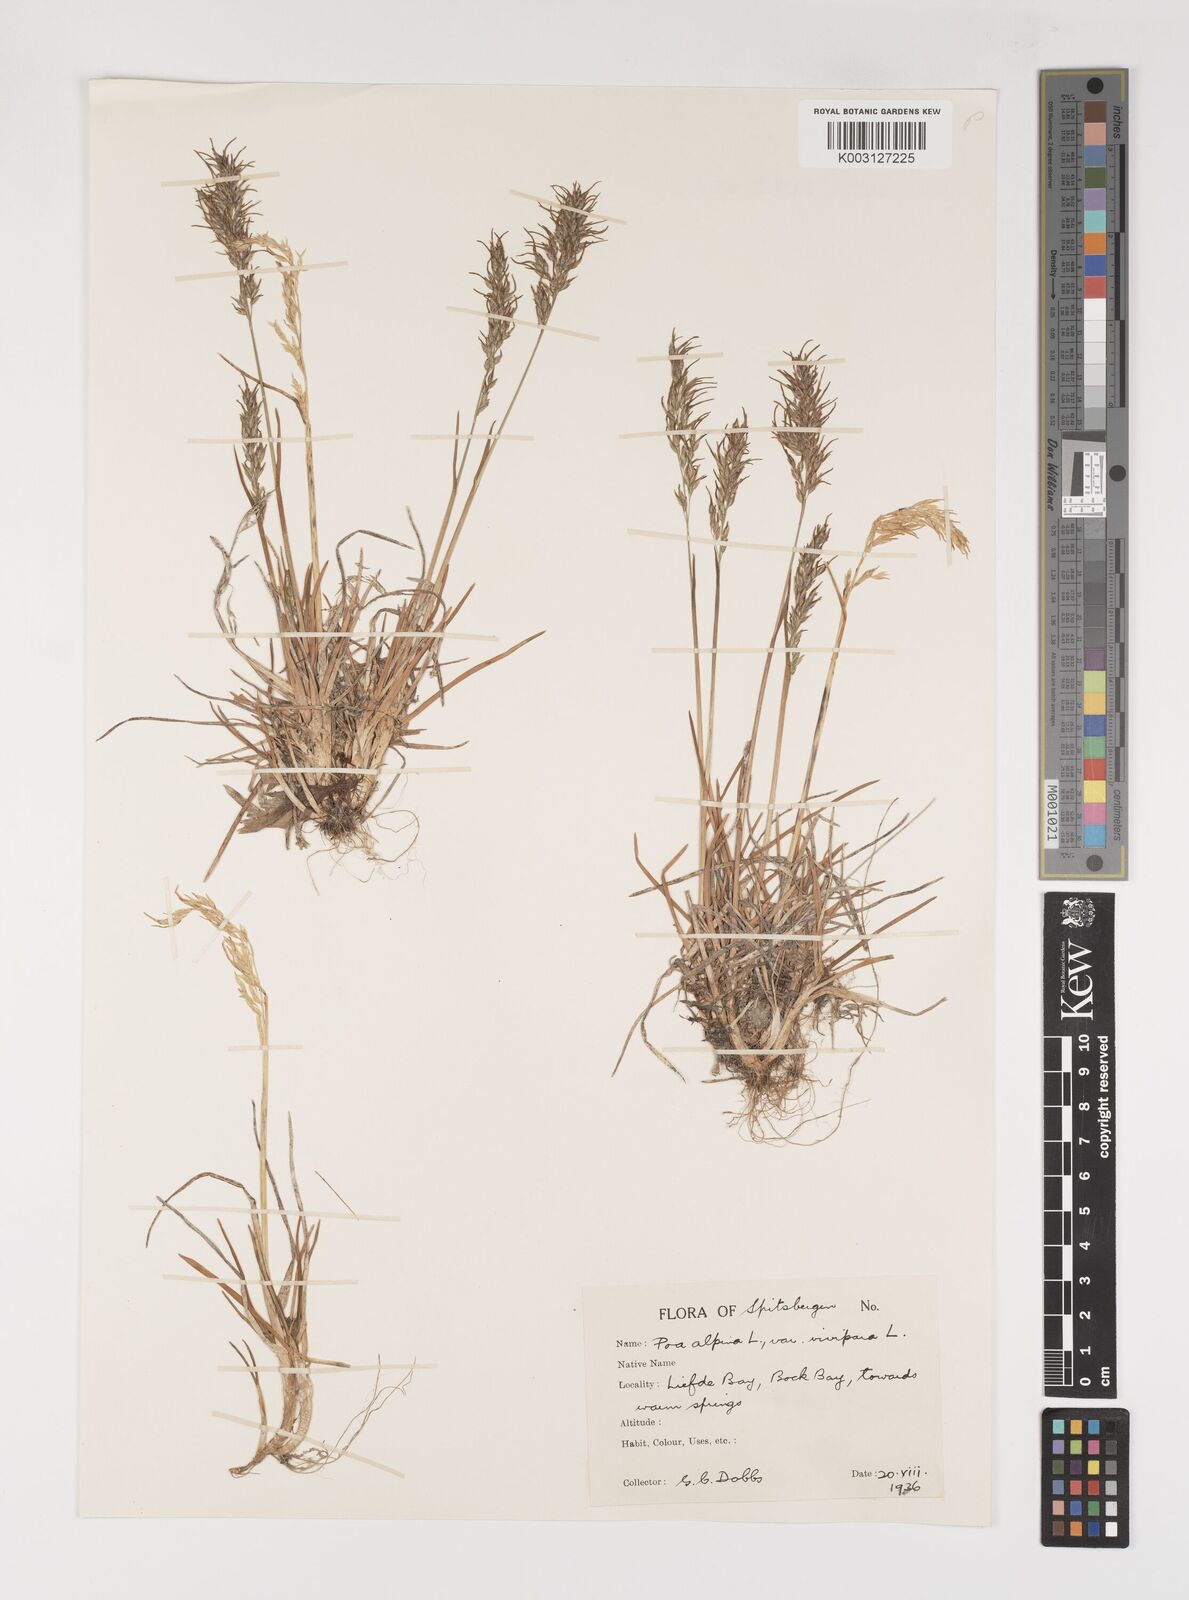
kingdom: Plantae
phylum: Tracheophyta
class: Liliopsida
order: Poales
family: Poaceae
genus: Poa
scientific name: Poa alpina
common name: Alpine bluegrass
